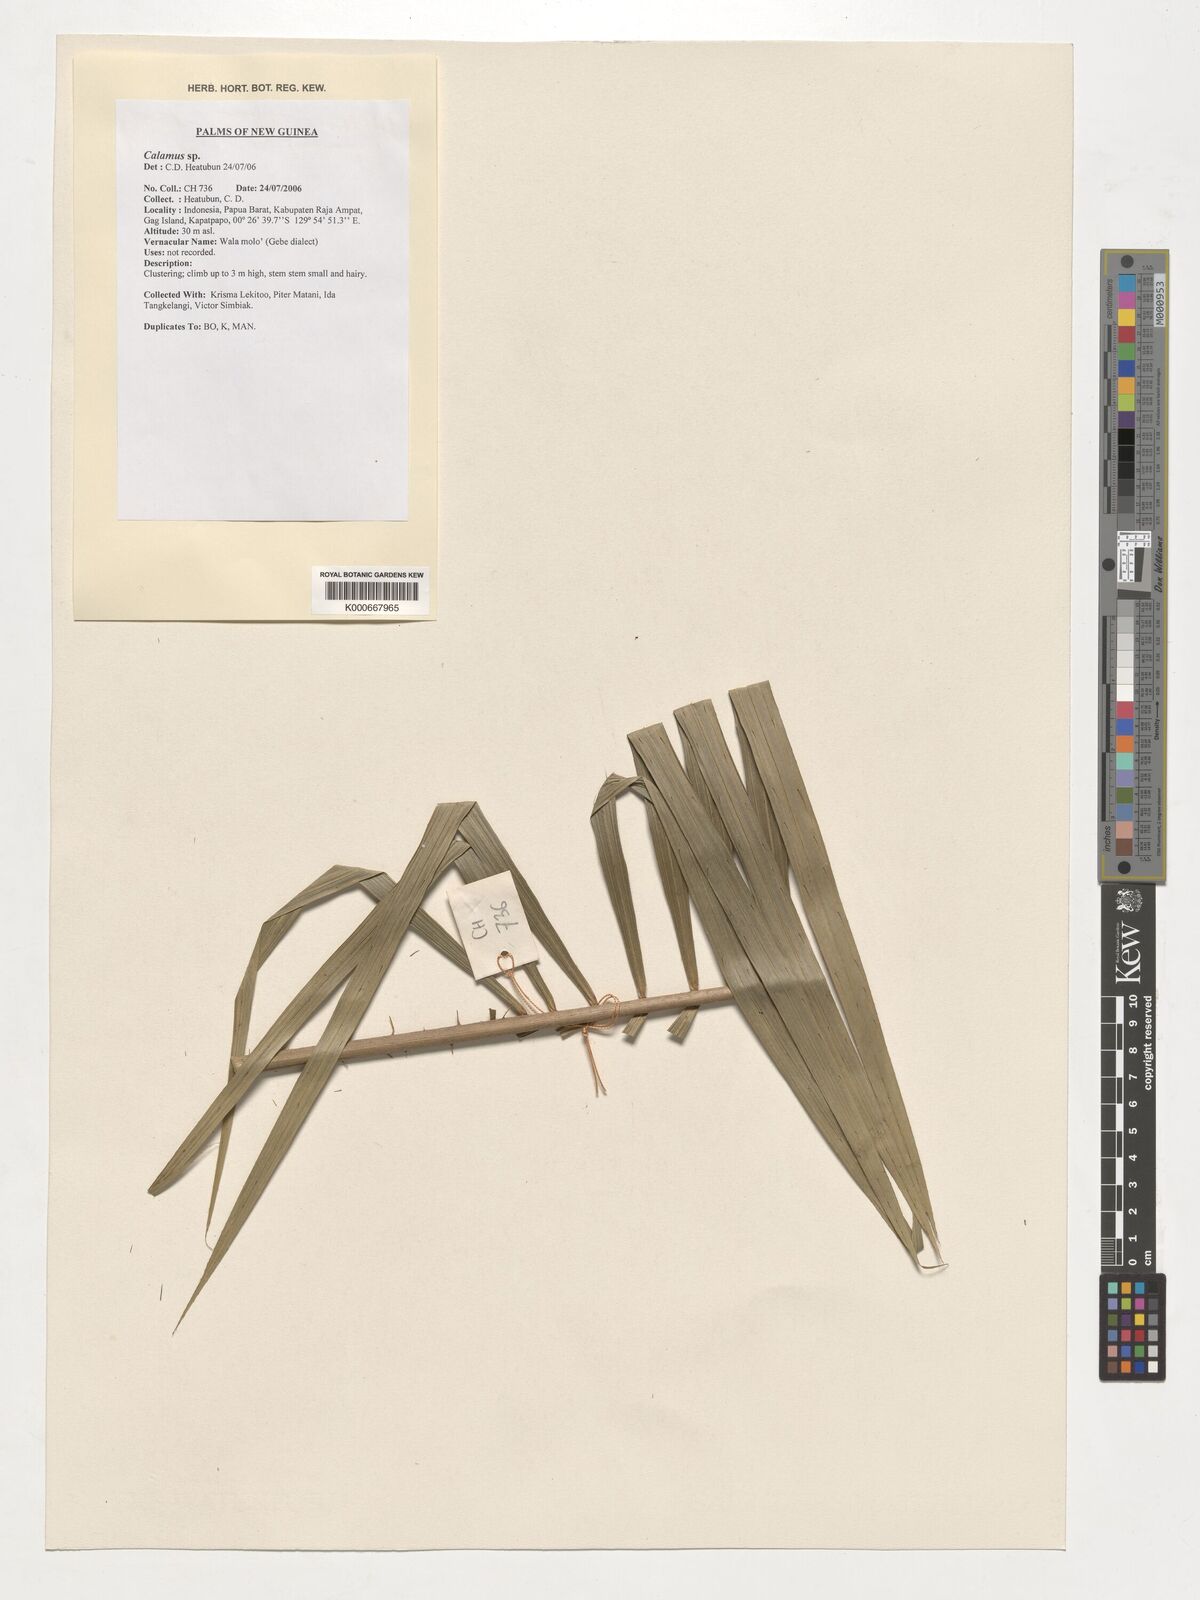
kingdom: Plantae
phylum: Tracheophyta
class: Liliopsida
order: Arecales
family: Arecaceae
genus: Calamus
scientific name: Calamus
